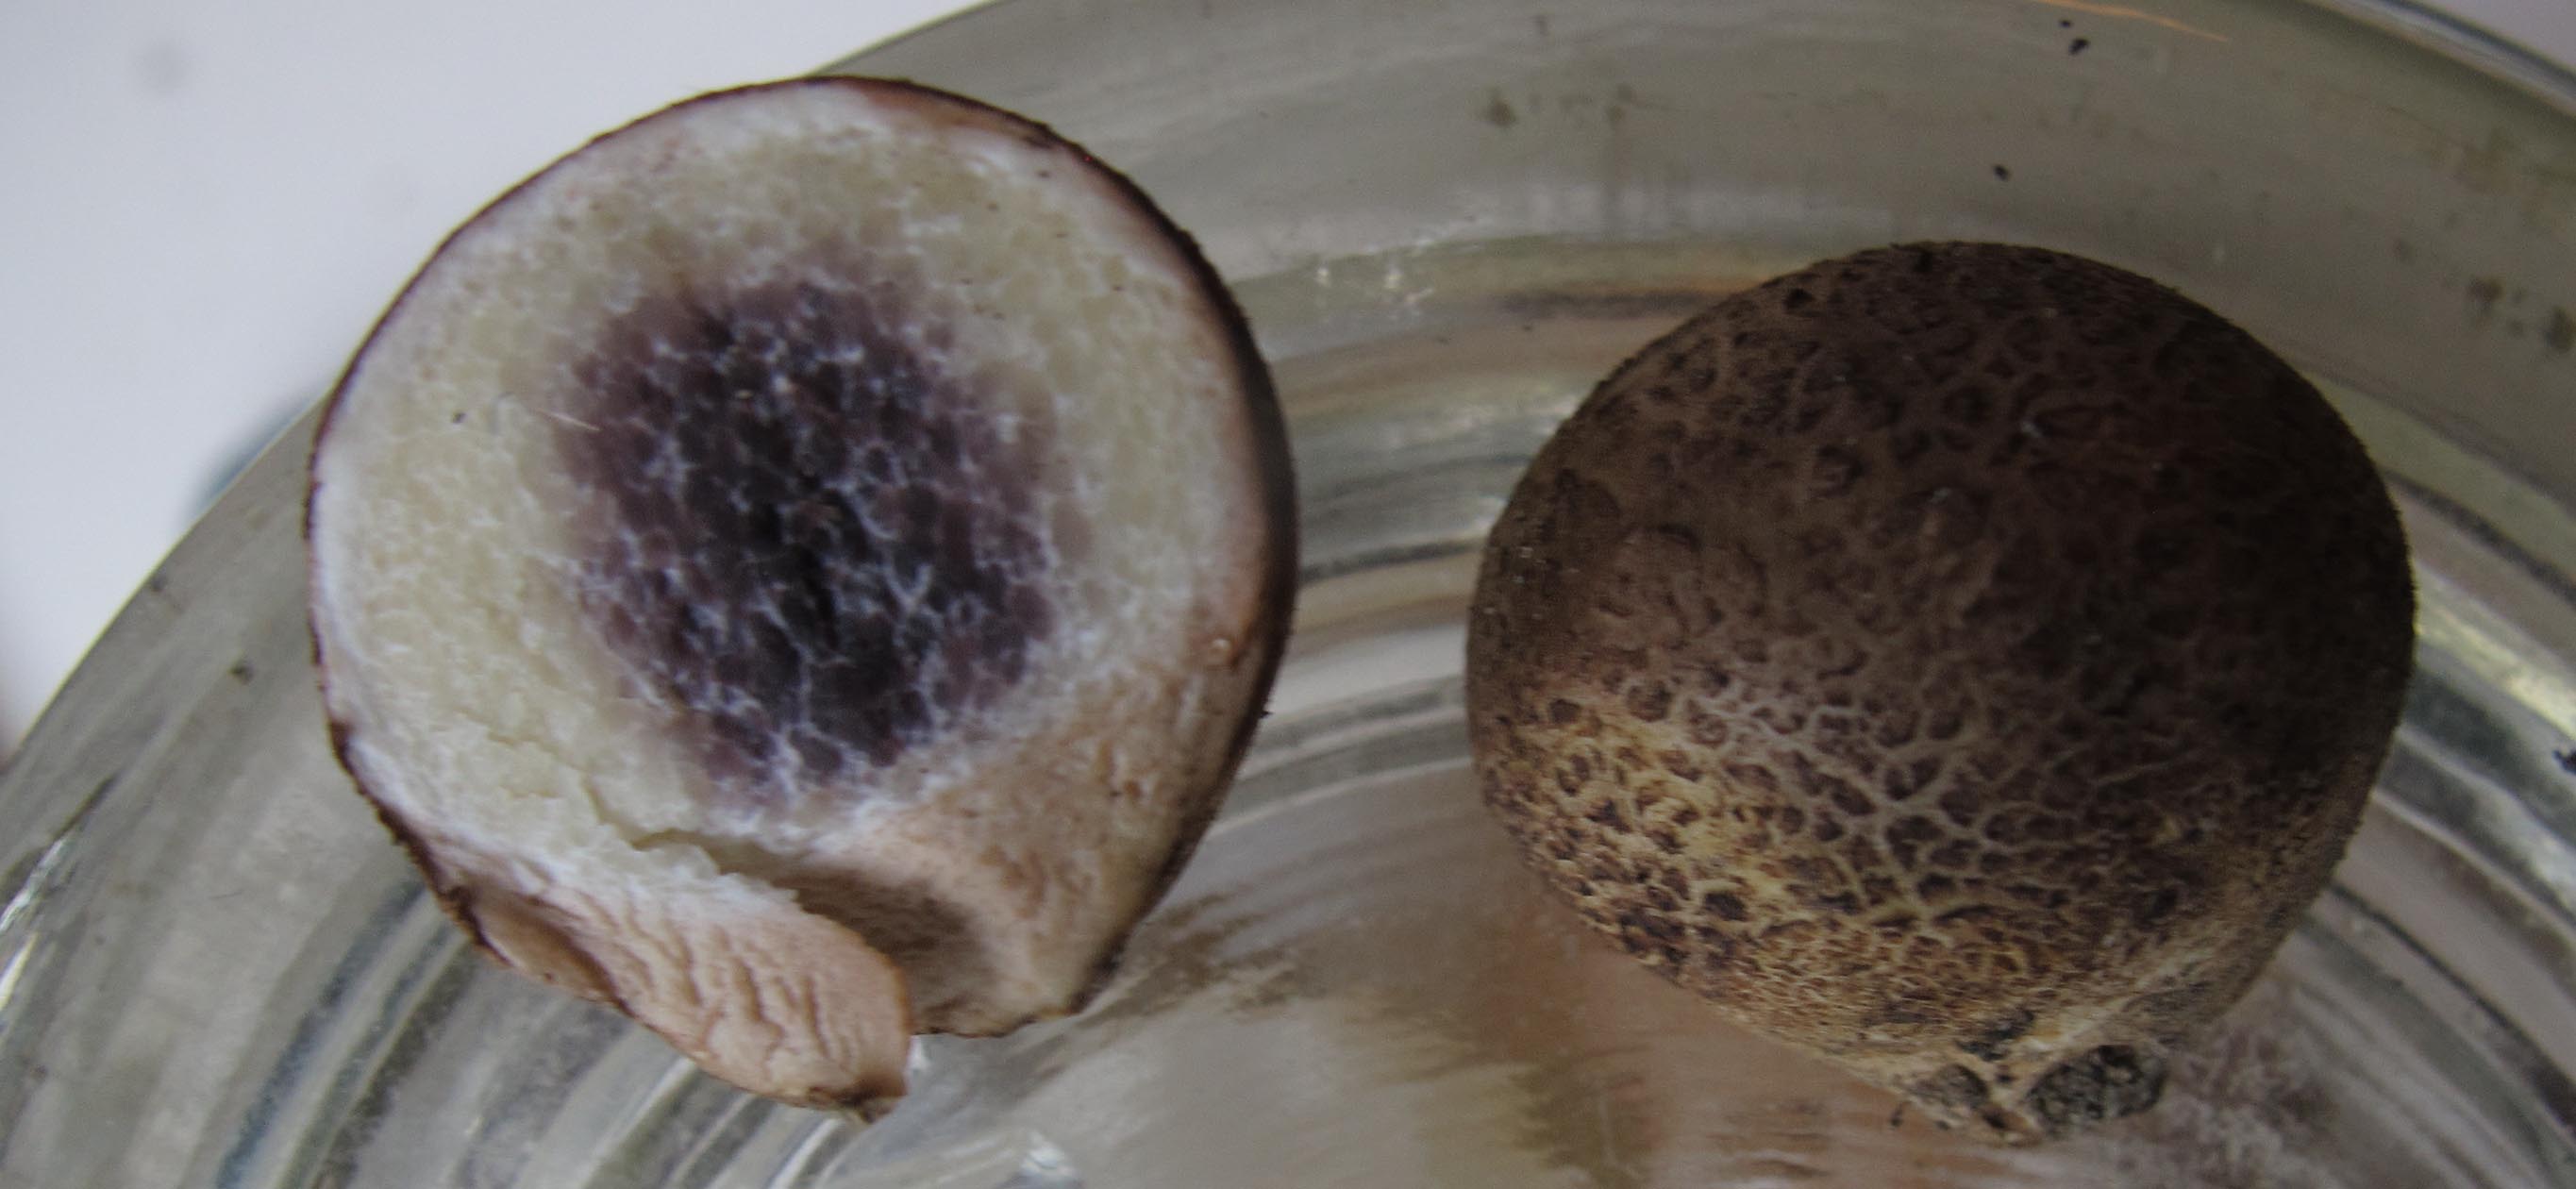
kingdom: Fungi
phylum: Basidiomycota
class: Agaricomycetes
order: Boletales
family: Sclerodermataceae
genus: Scleroderma
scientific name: Scleroderma bovista
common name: bovist-bruskbold
